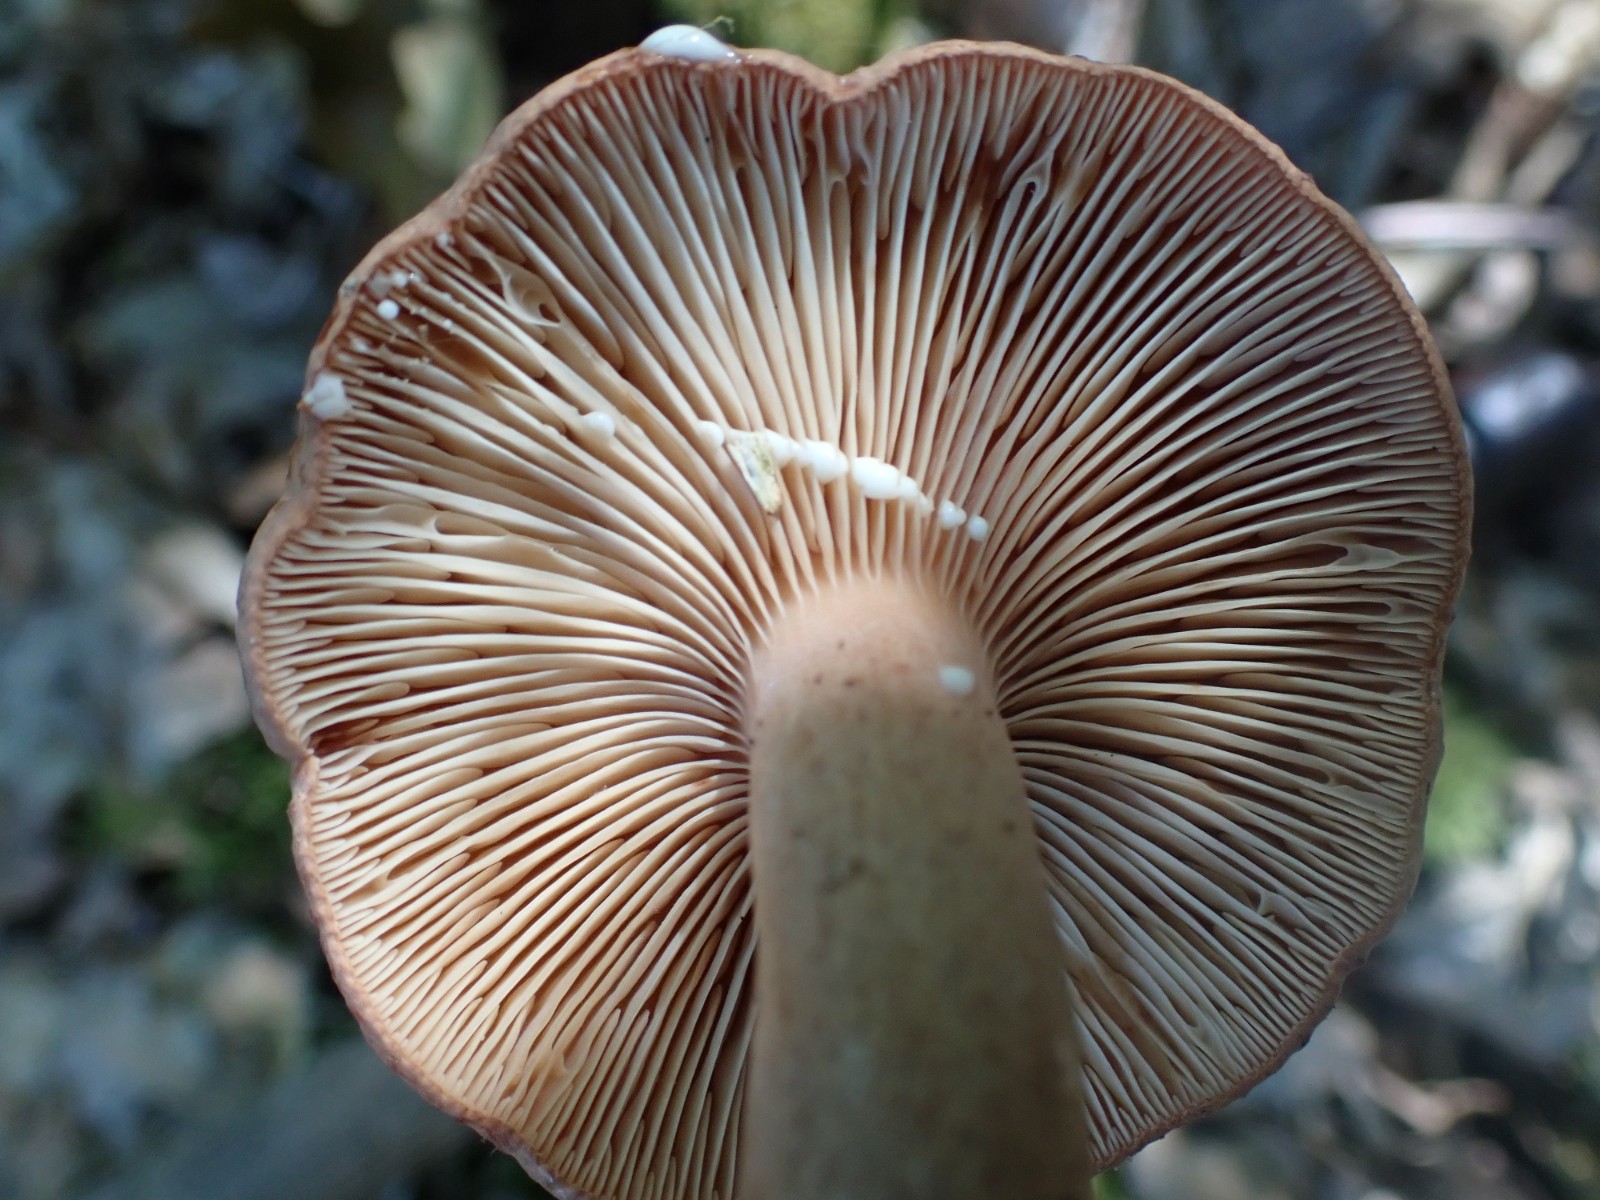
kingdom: Fungi
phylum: Basidiomycota
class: Agaricomycetes
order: Russulales
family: Russulaceae
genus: Lactarius
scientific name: Lactarius quietus
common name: ege-mælkehat
